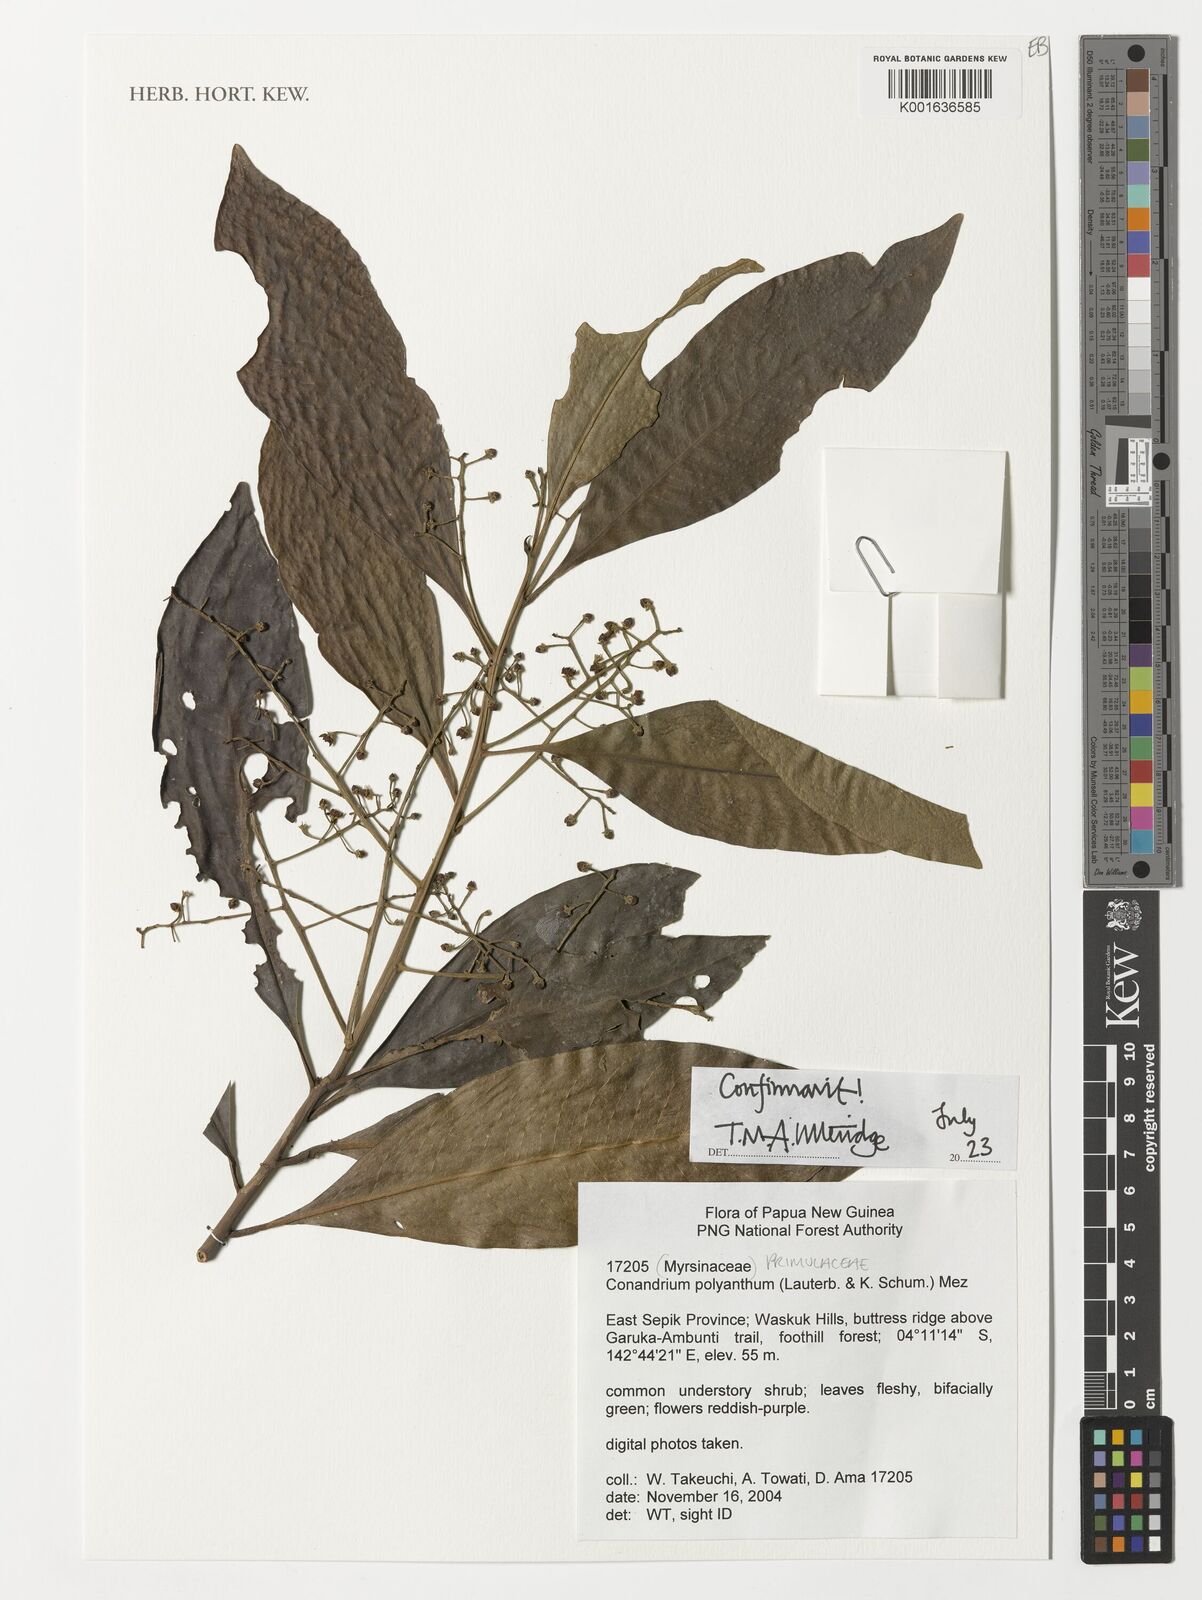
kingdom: Plantae
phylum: Tracheophyta
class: Magnoliopsida
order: Ericales
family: Primulaceae
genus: Conandrium
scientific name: Conandrium polyanthum
